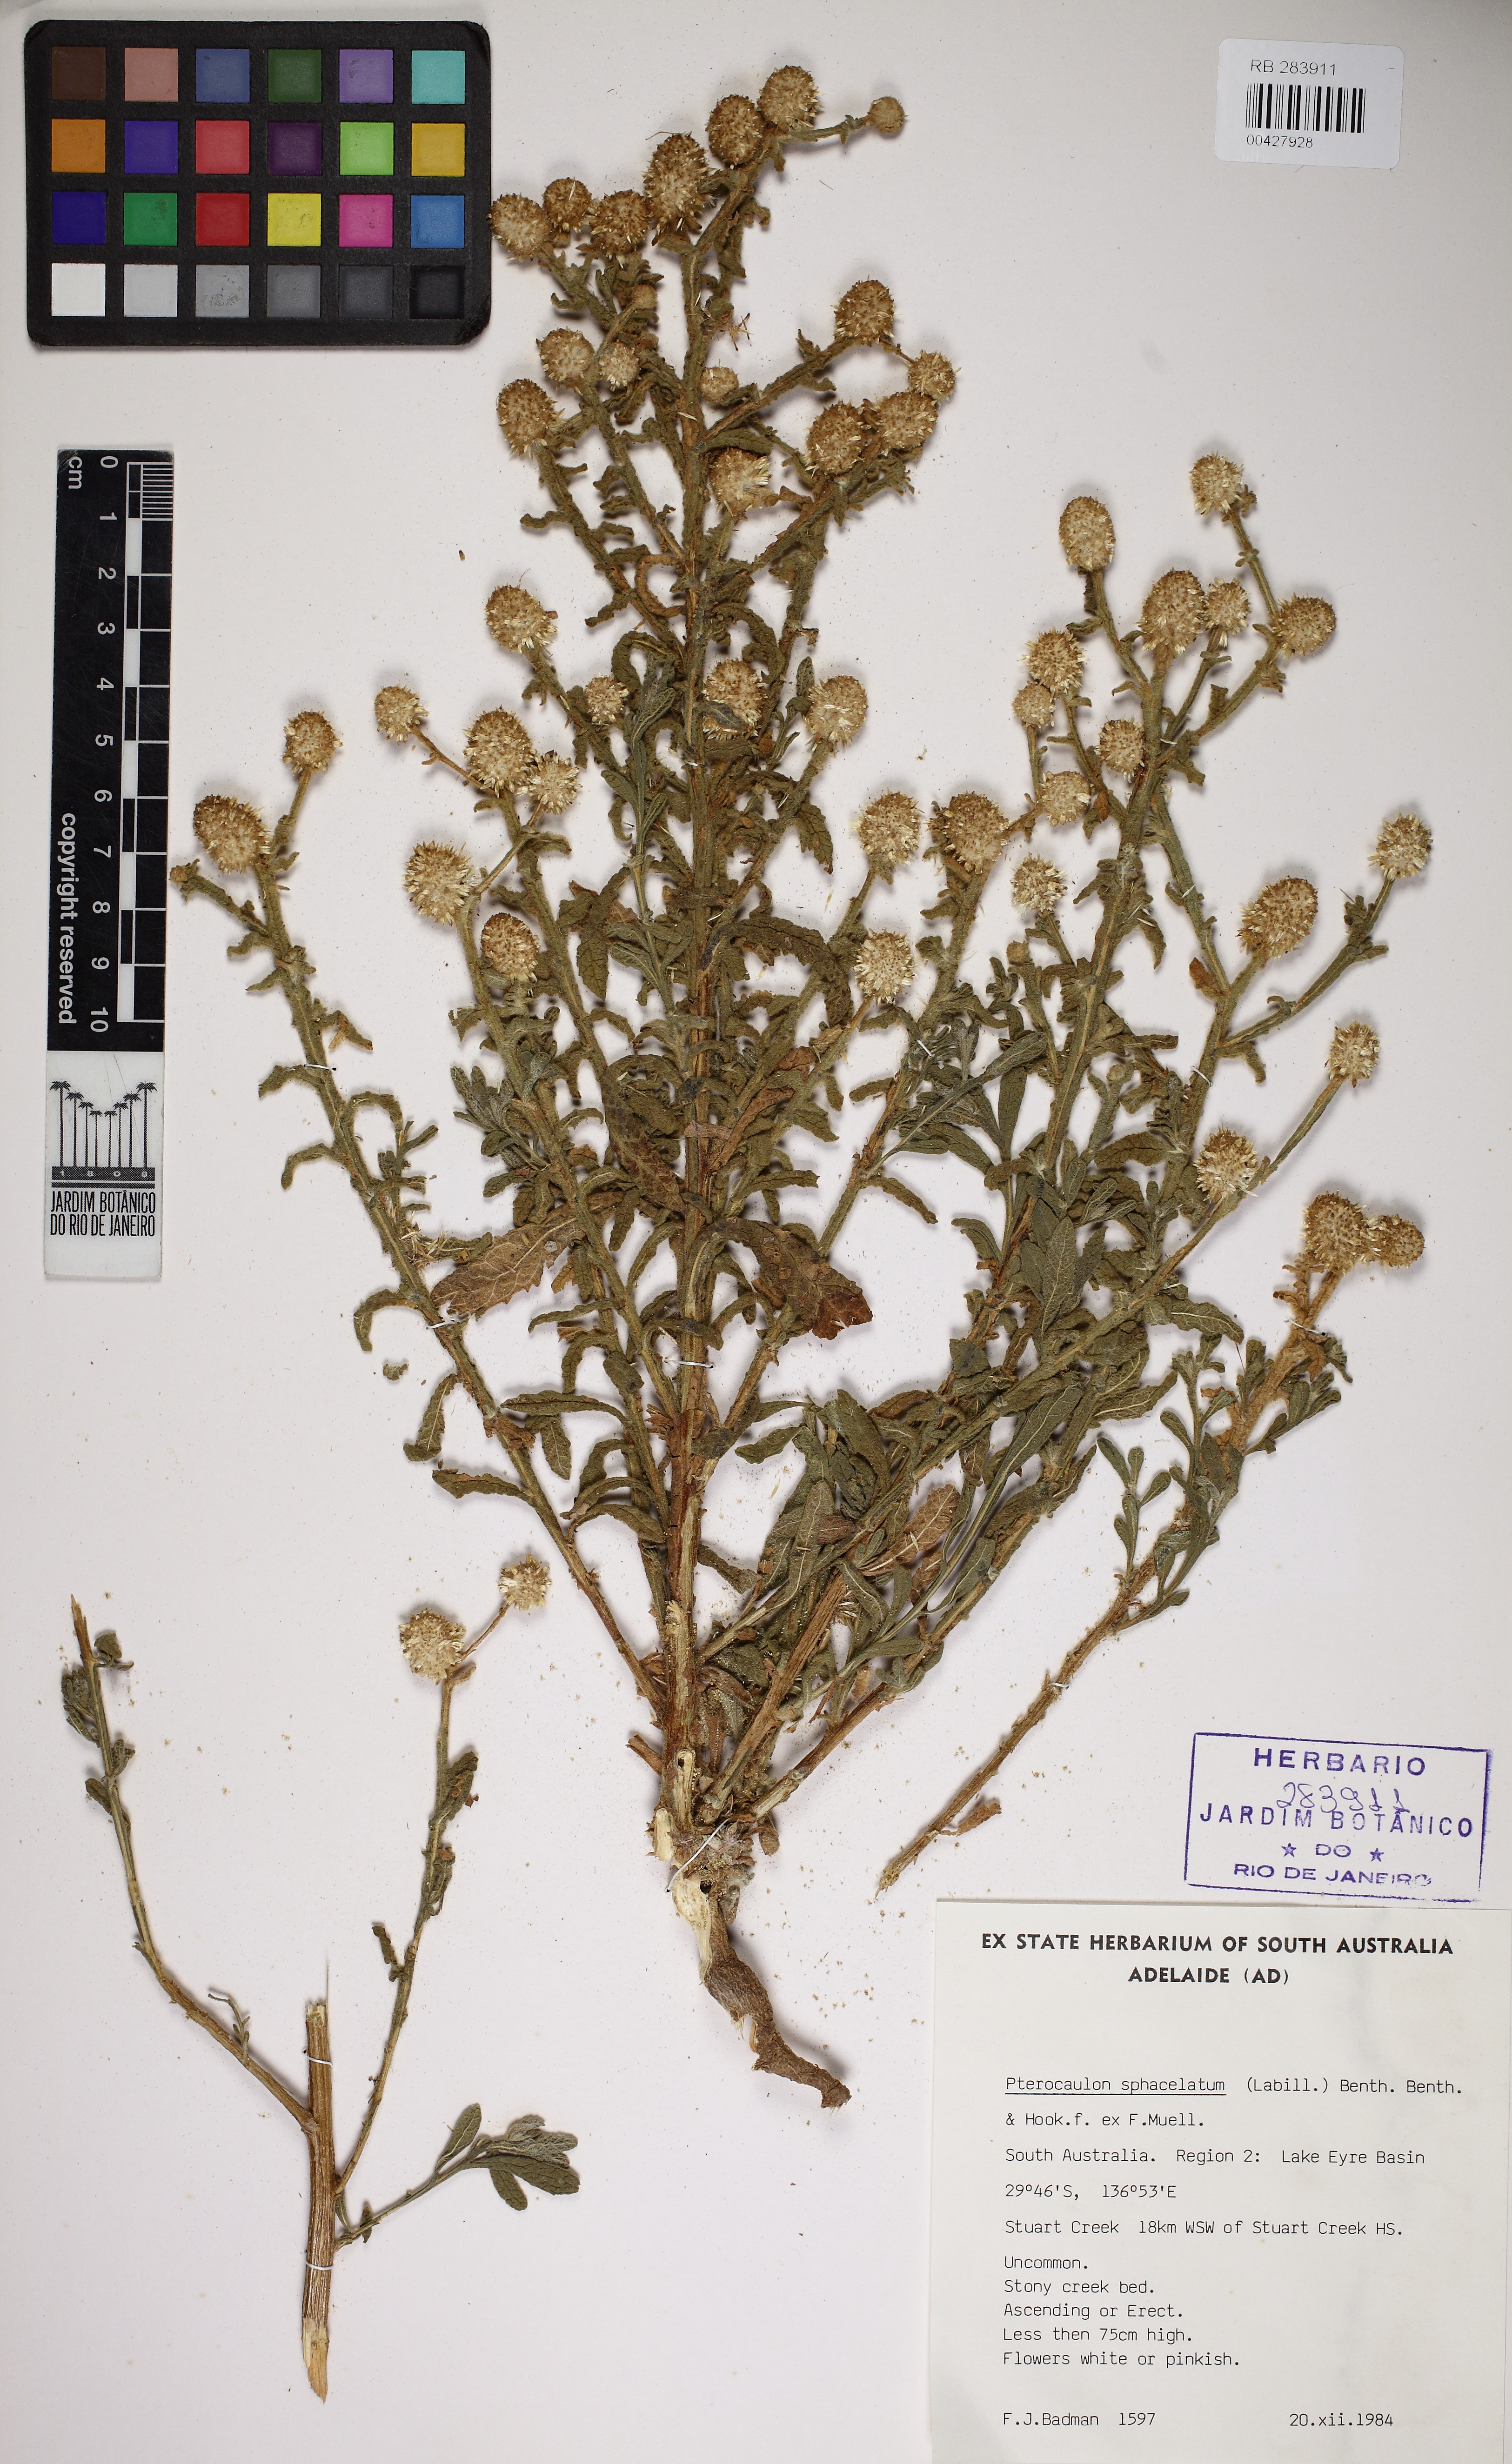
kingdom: Plantae
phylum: Tracheophyta
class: Magnoliopsida
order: Asterales
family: Asteraceae
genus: Pterocaulon
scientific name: Pterocaulon sphacelatum
